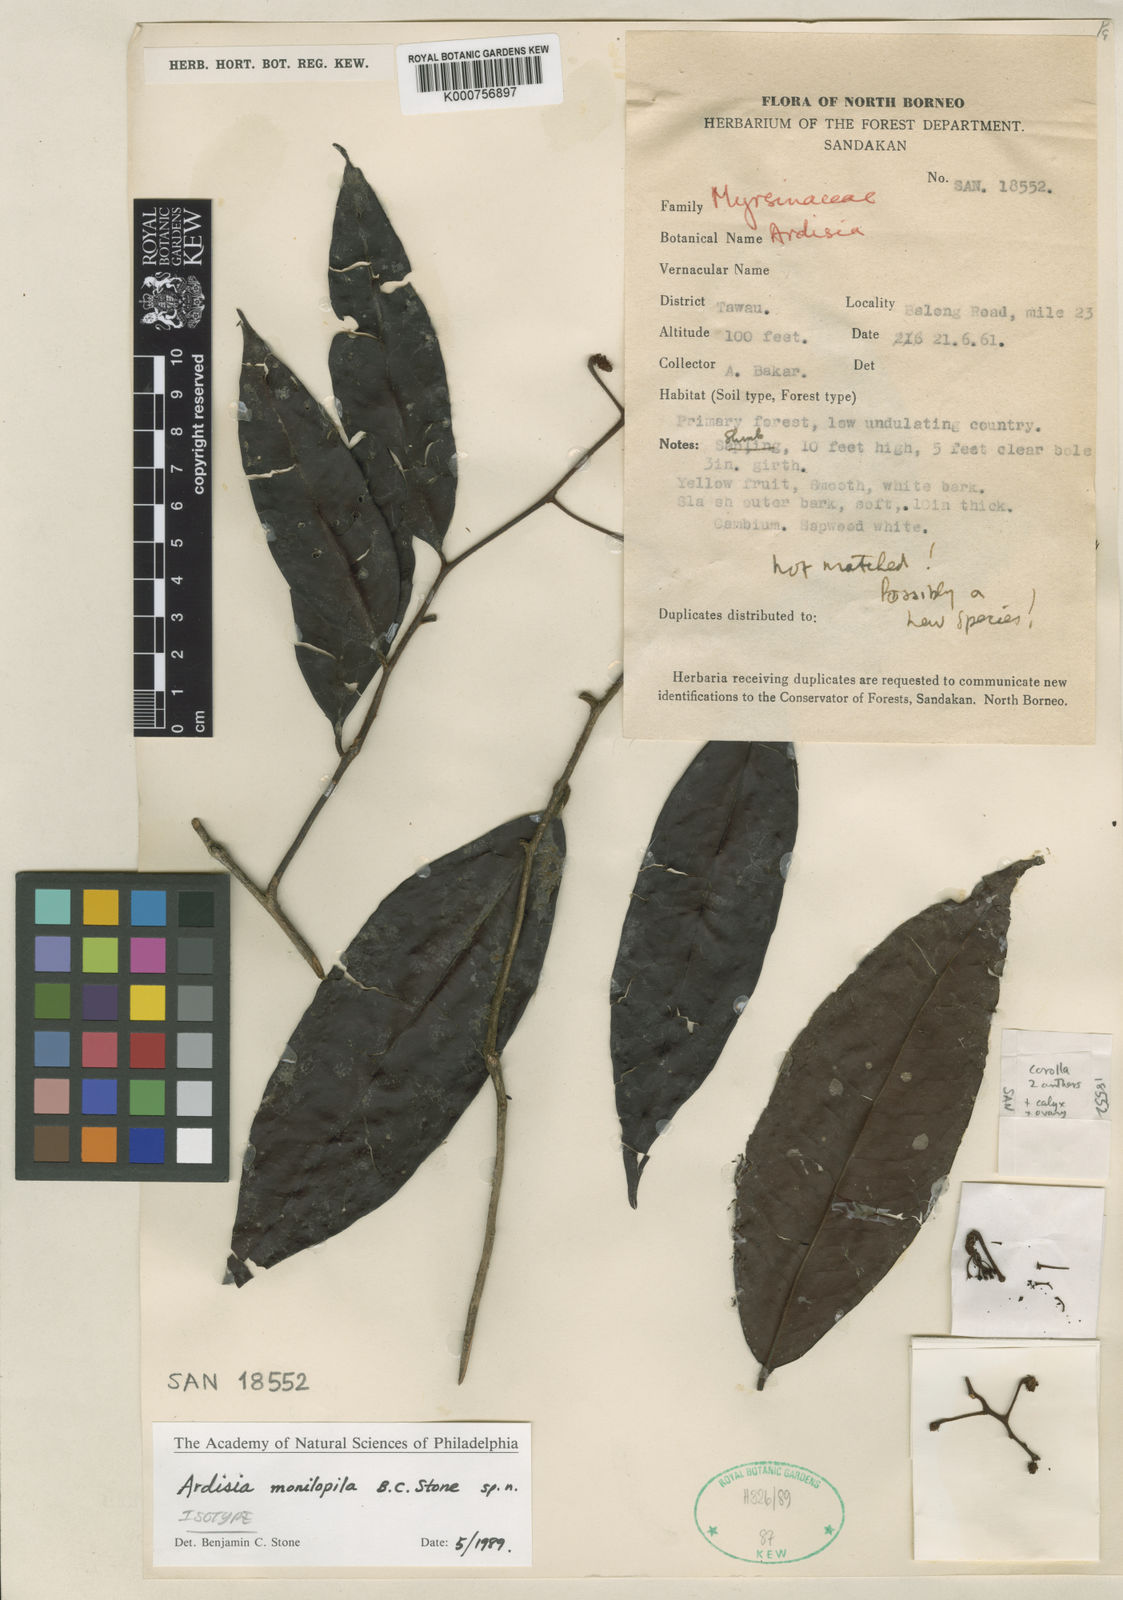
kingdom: Plantae
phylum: Tracheophyta
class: Magnoliopsida
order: Ericales
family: Primulaceae
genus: Ardisia
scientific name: Ardisia monilipila
